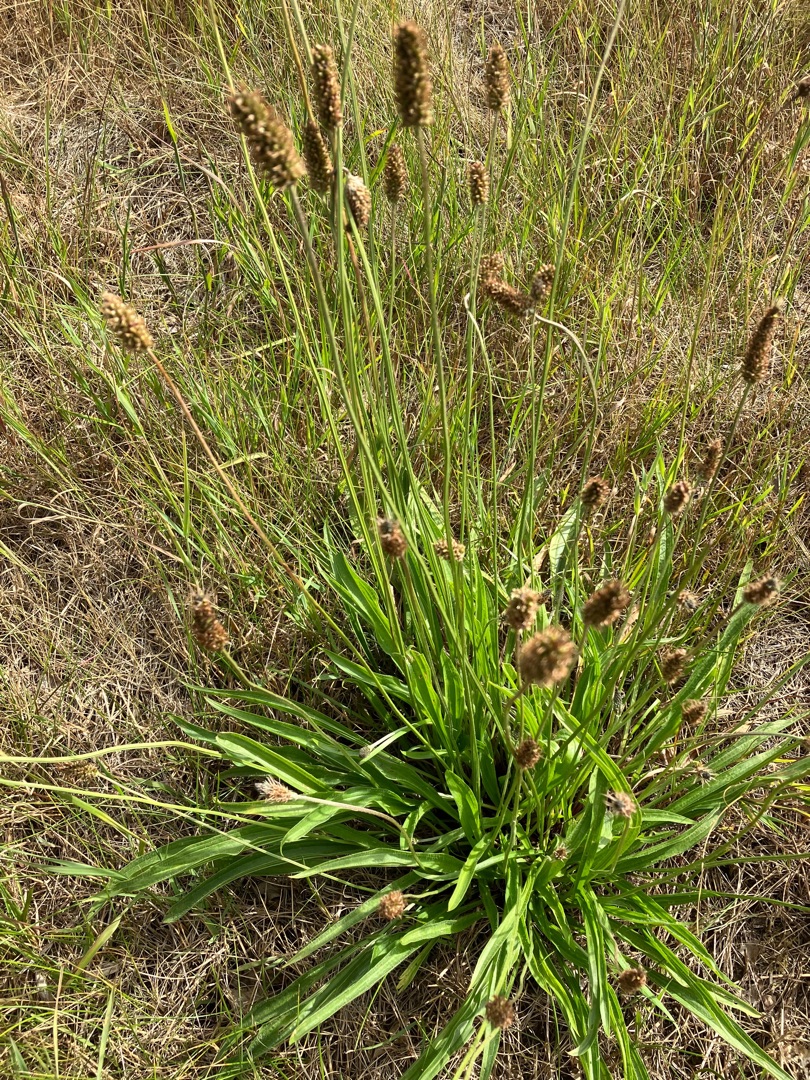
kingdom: Plantae
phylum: Tracheophyta
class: Magnoliopsida
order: Lamiales
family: Plantaginaceae
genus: Plantago
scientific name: Plantago lanceolata
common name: Lancet-vejbred
